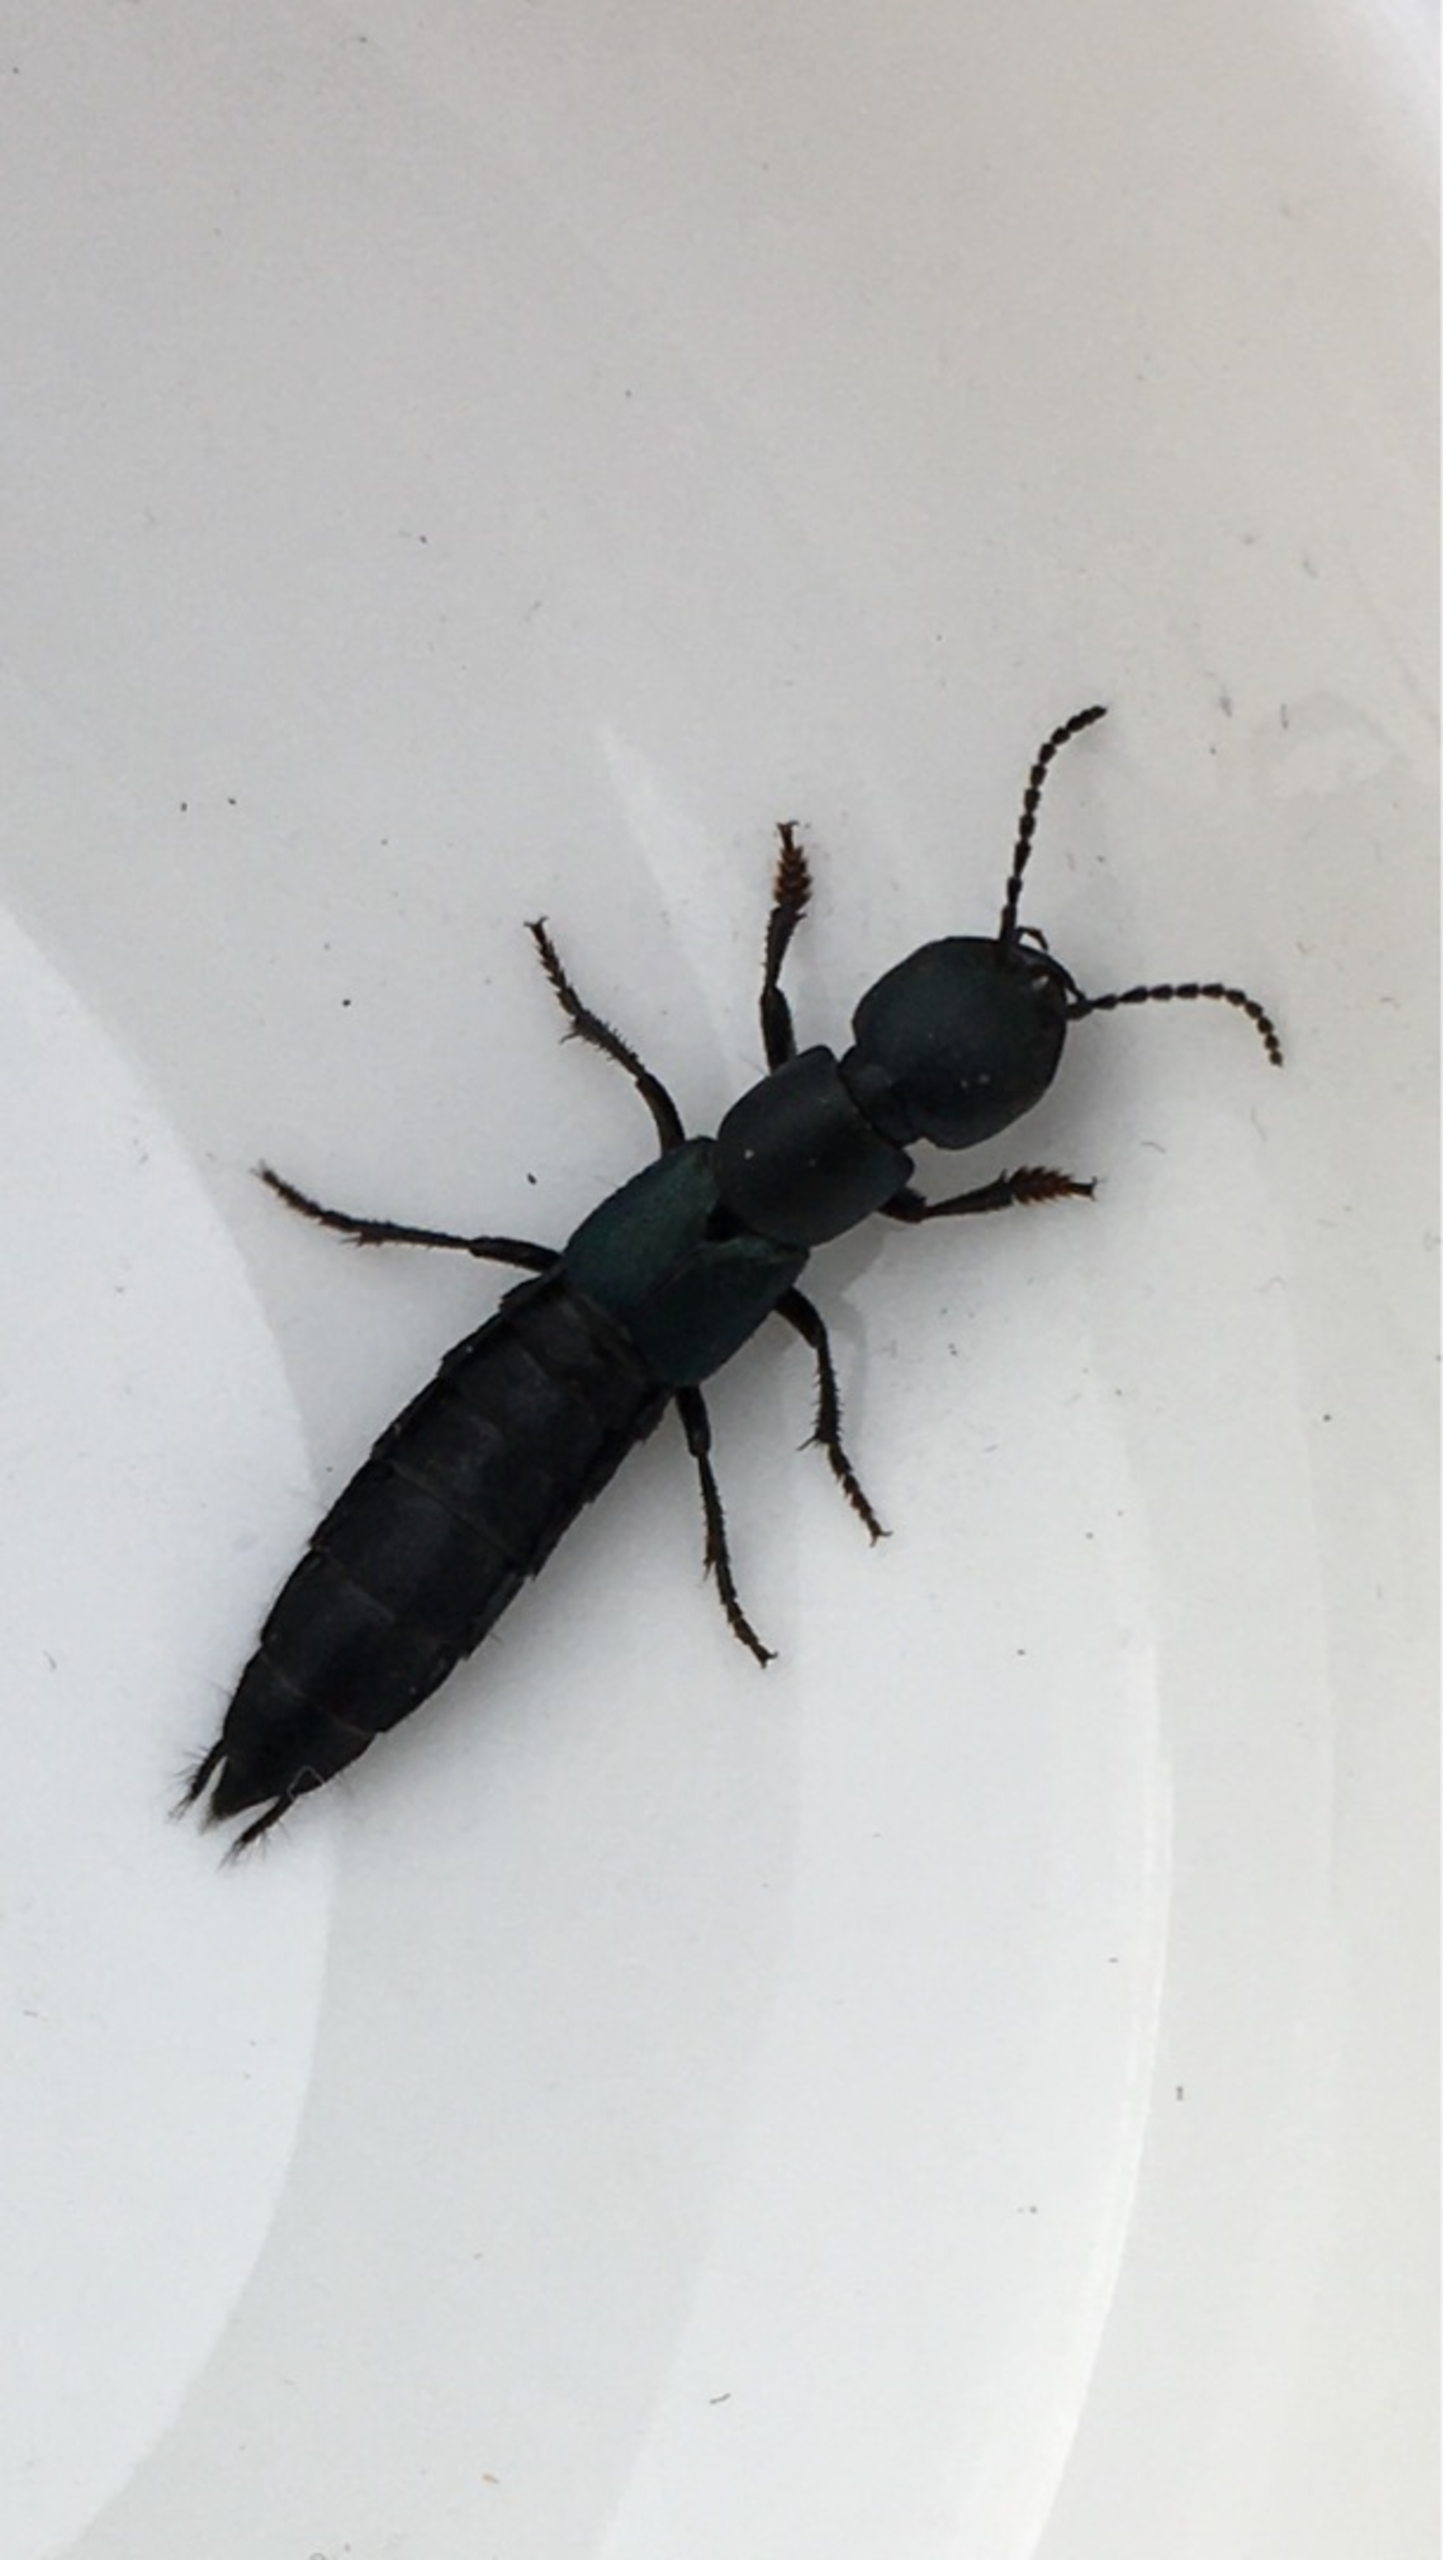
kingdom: Animalia
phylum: Arthropoda
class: Insecta
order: Coleoptera
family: Staphylinidae
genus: Ocypus
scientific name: Ocypus ophthalmicus
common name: Blå kæmperovbille
